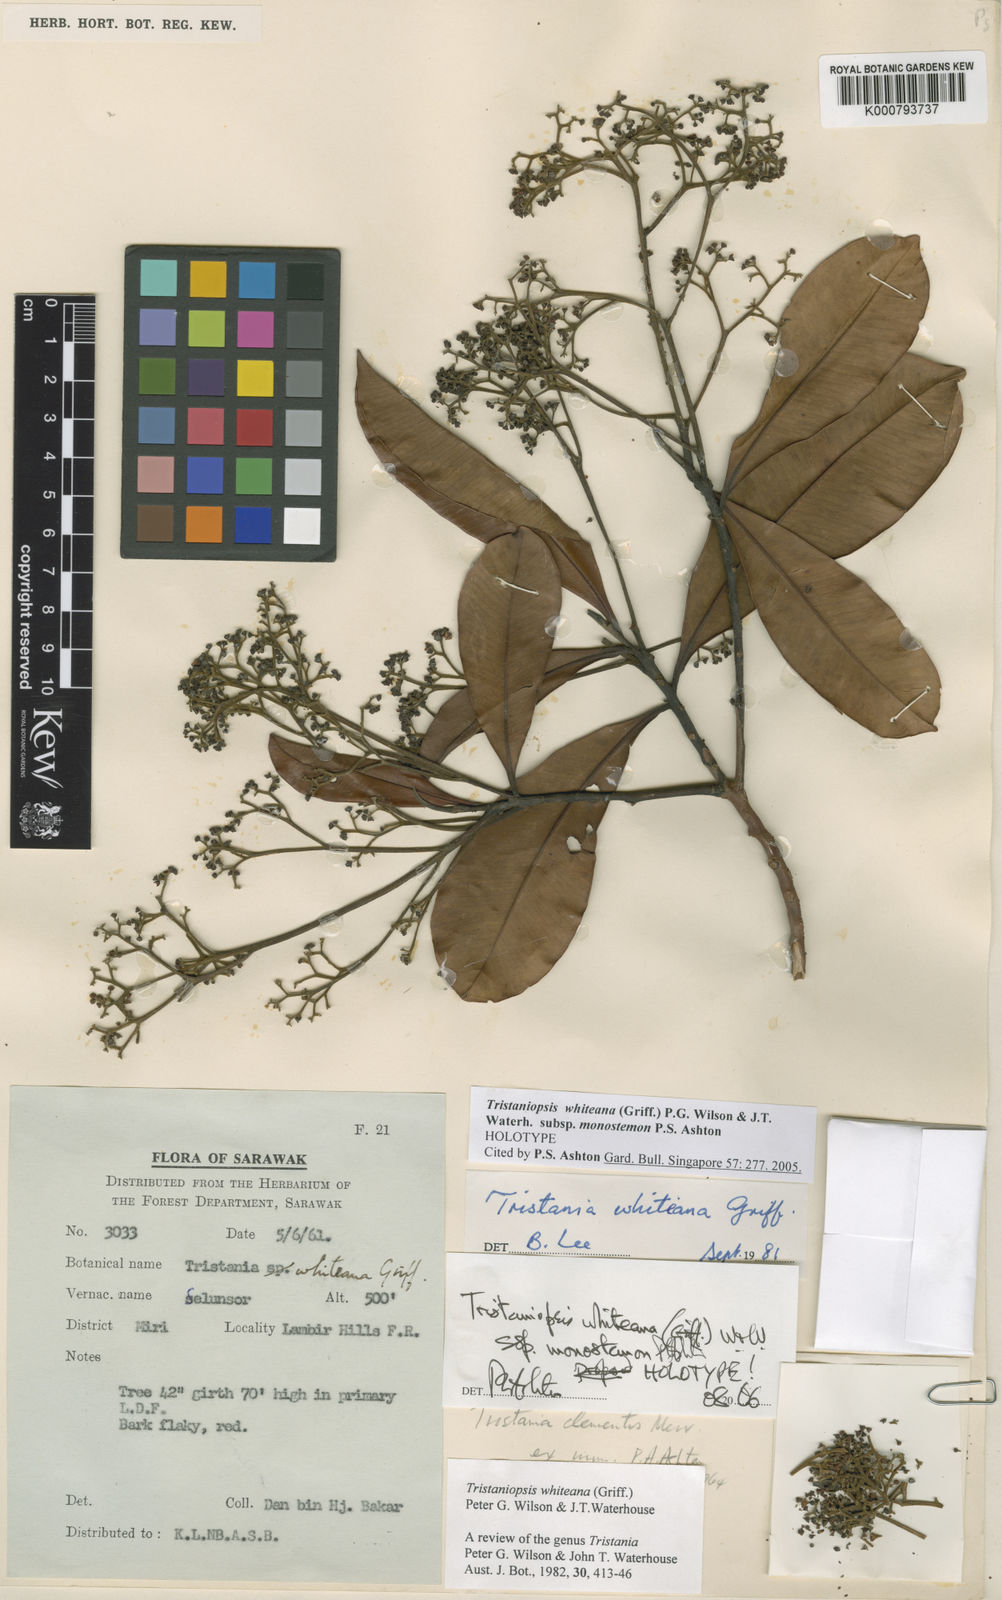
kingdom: Plantae
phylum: Tracheophyta
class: Magnoliopsida
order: Myrtales
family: Myrtaceae
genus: Tristaniopsis
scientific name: Tristaniopsis whiteana
